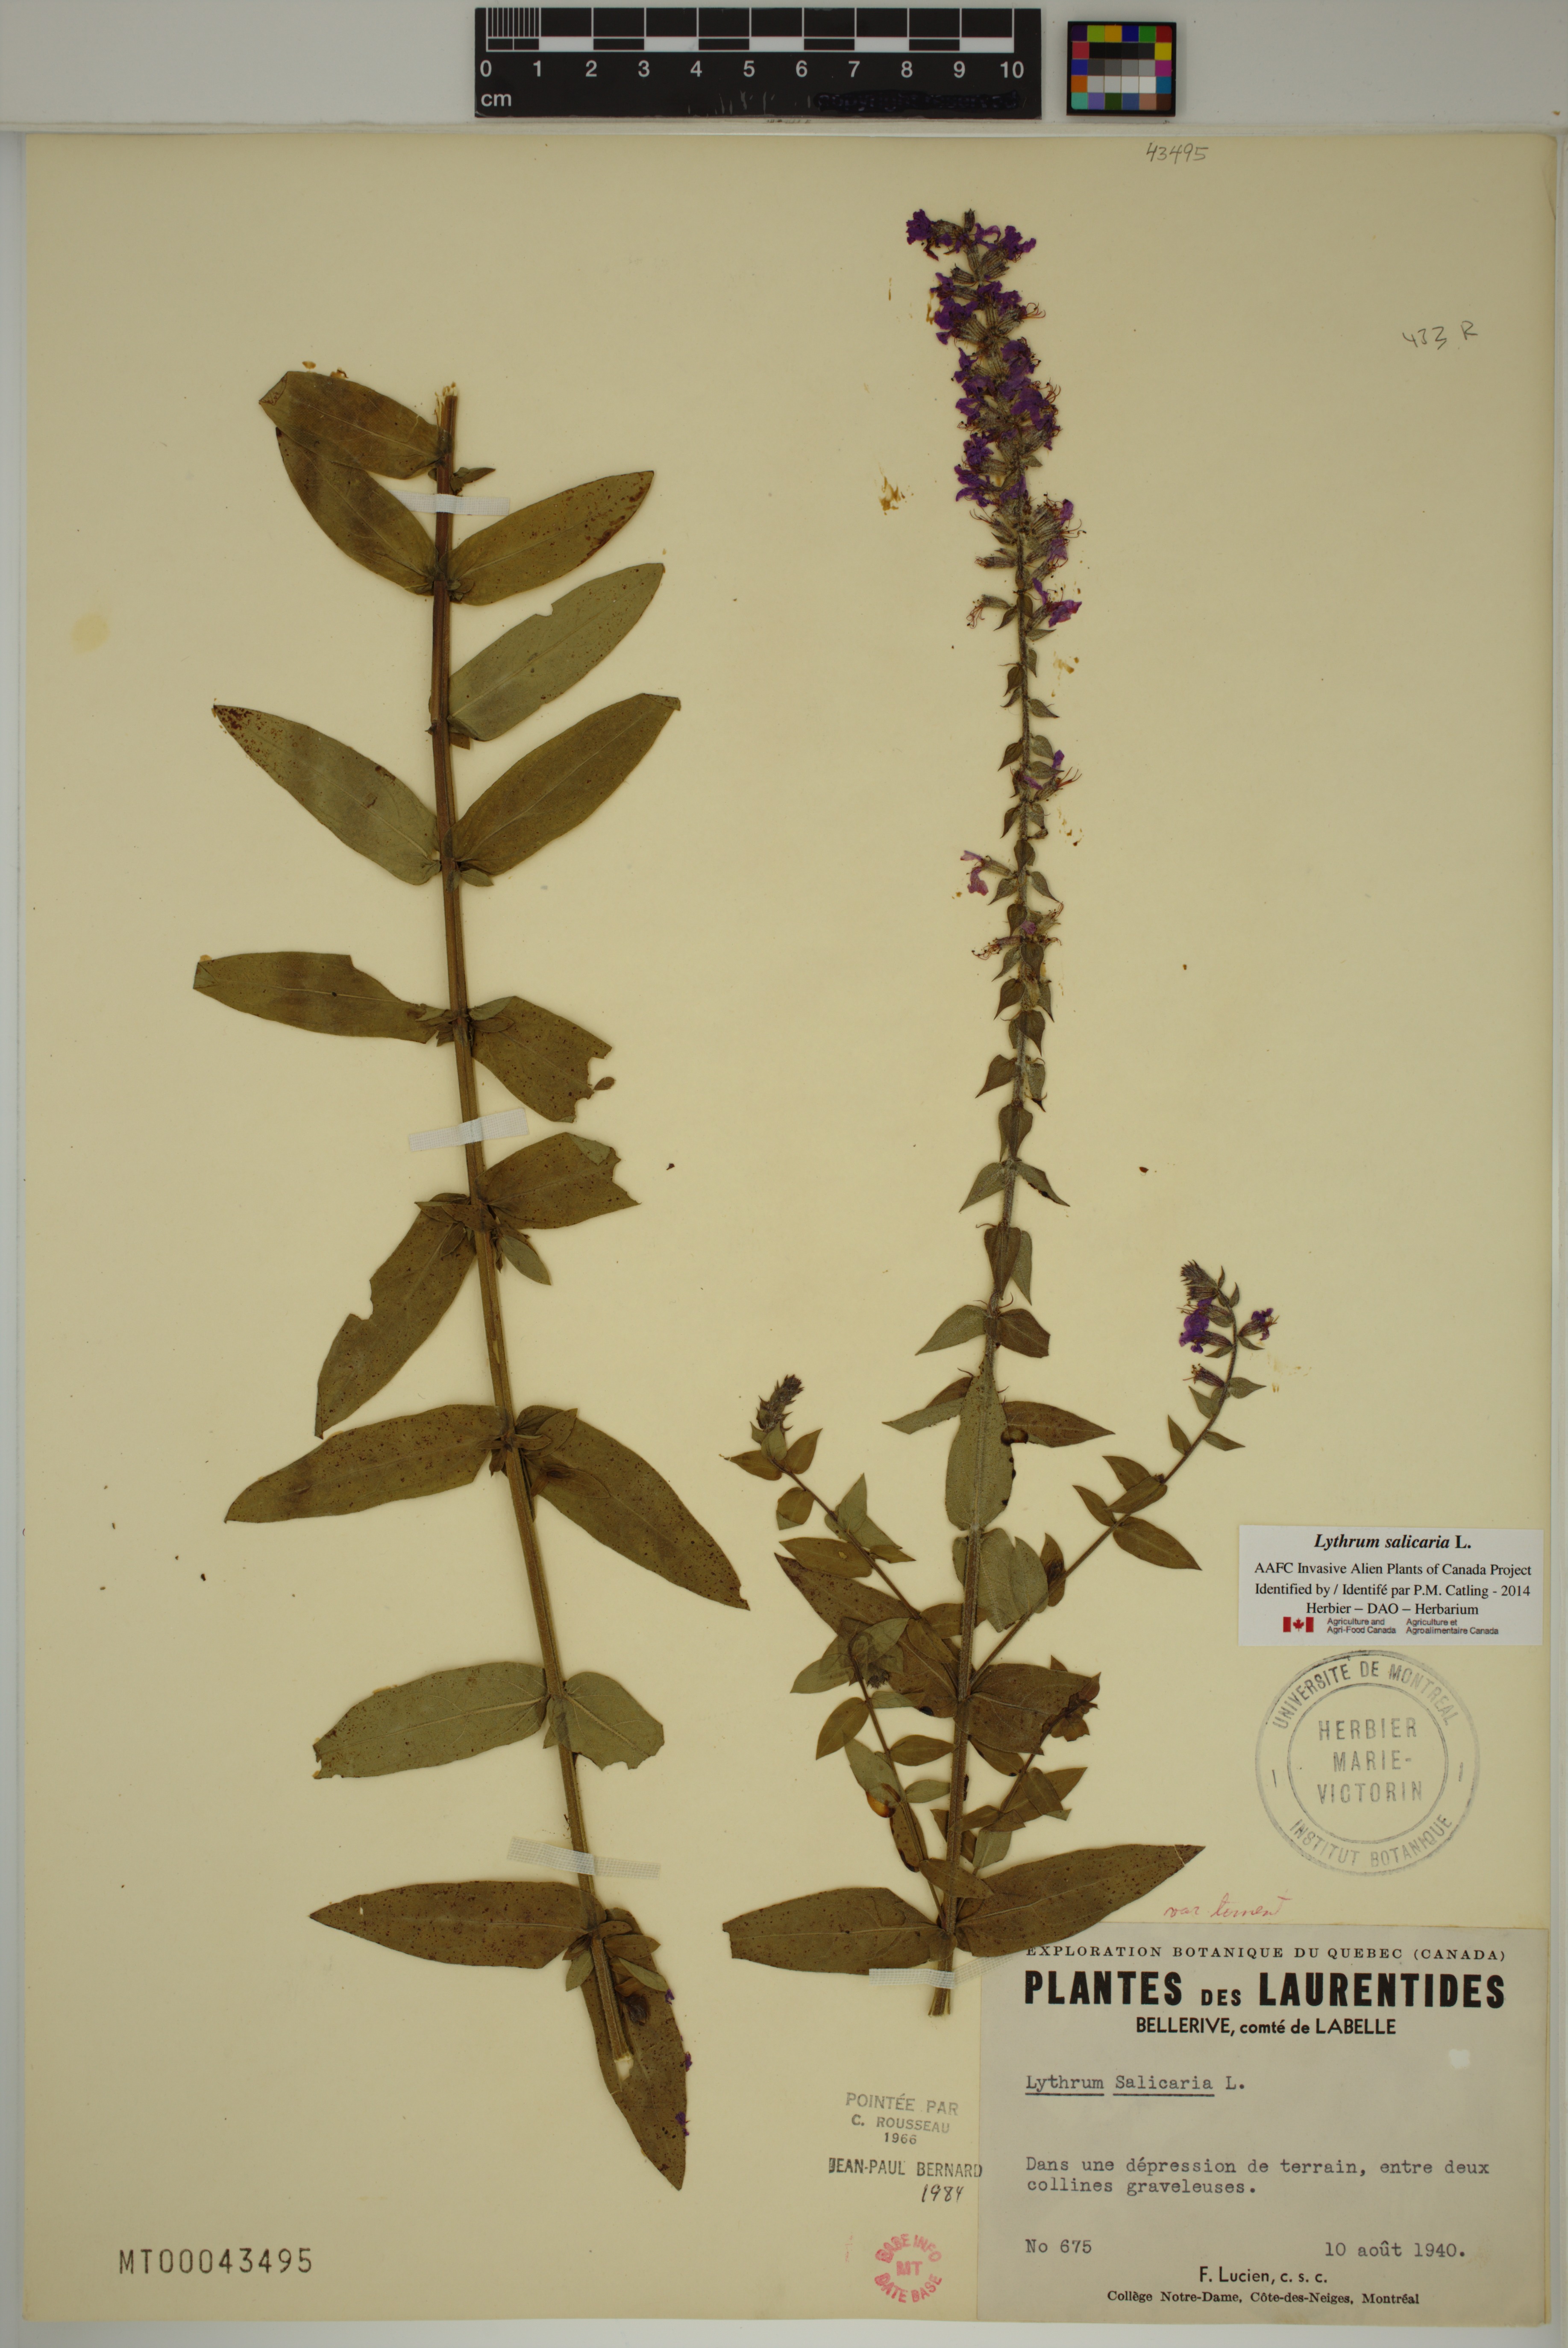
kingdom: Plantae
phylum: Tracheophyta
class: Magnoliopsida
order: Myrtales
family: Lythraceae
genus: Lythrum
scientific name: Lythrum salicaria
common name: Purple loosestrife
